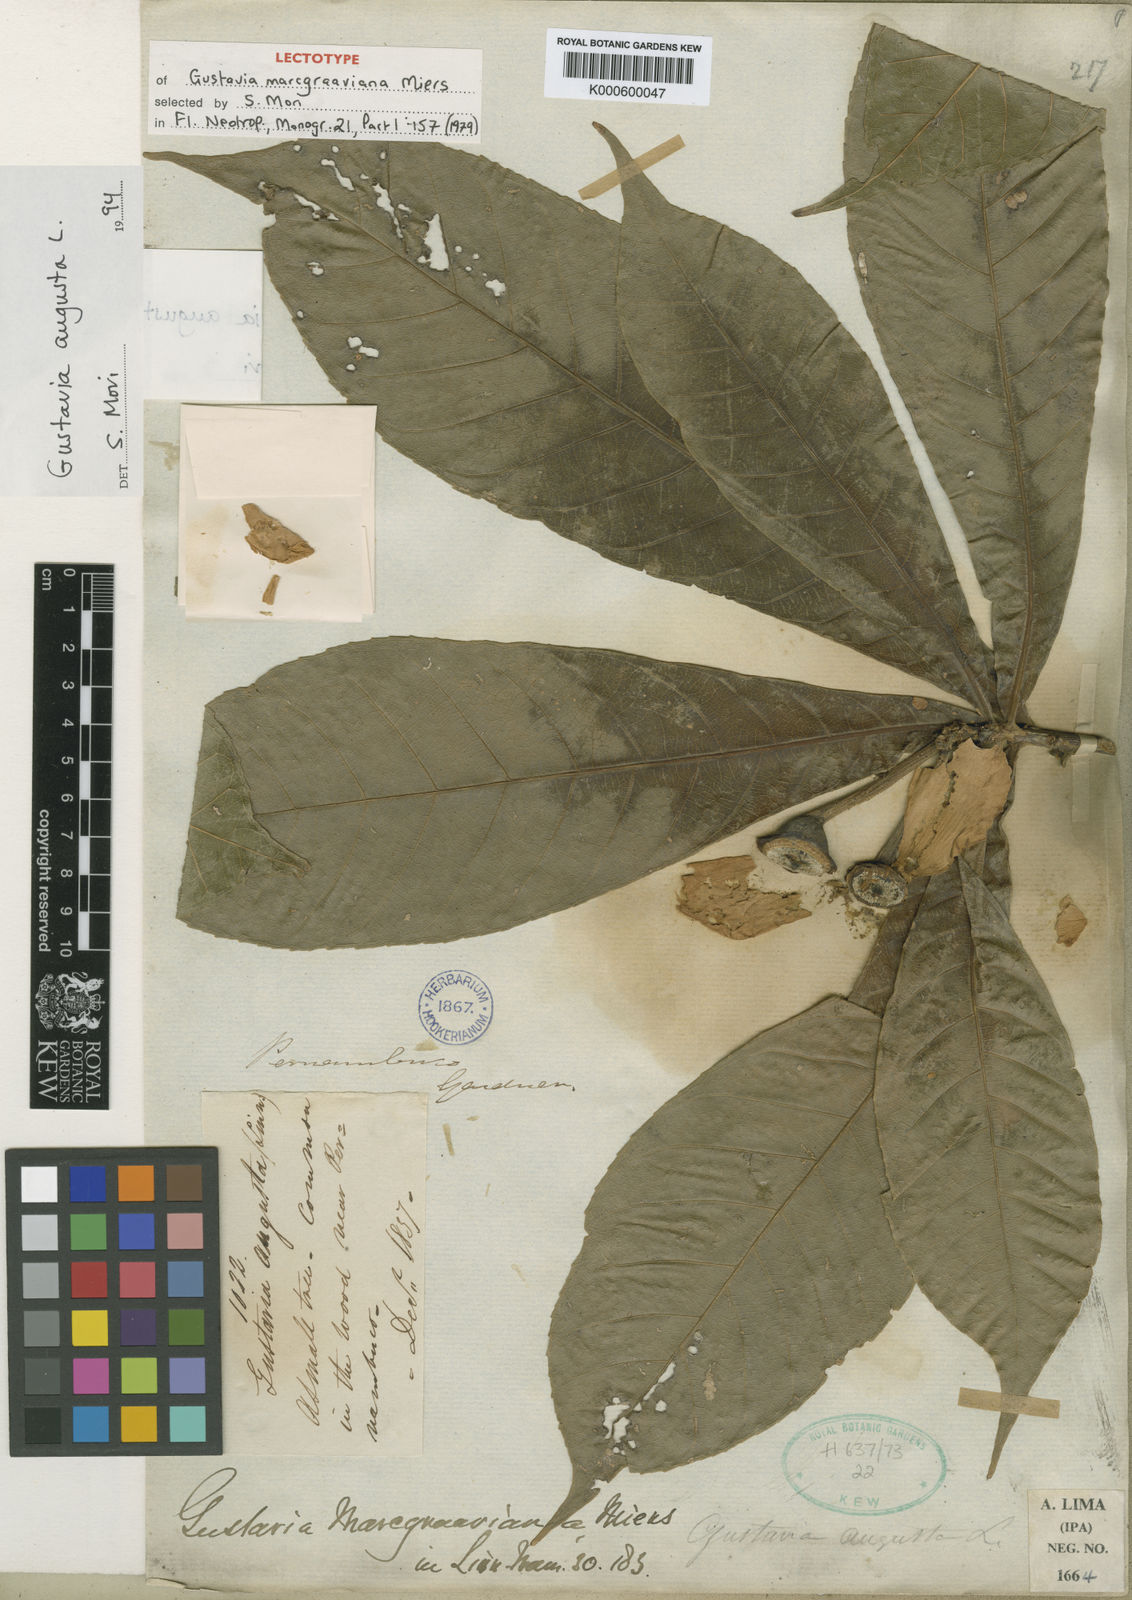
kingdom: Plantae
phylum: Tracheophyta
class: Magnoliopsida
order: Ericales
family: Lecythidaceae
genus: Gustavia
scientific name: Gustavia augusta
